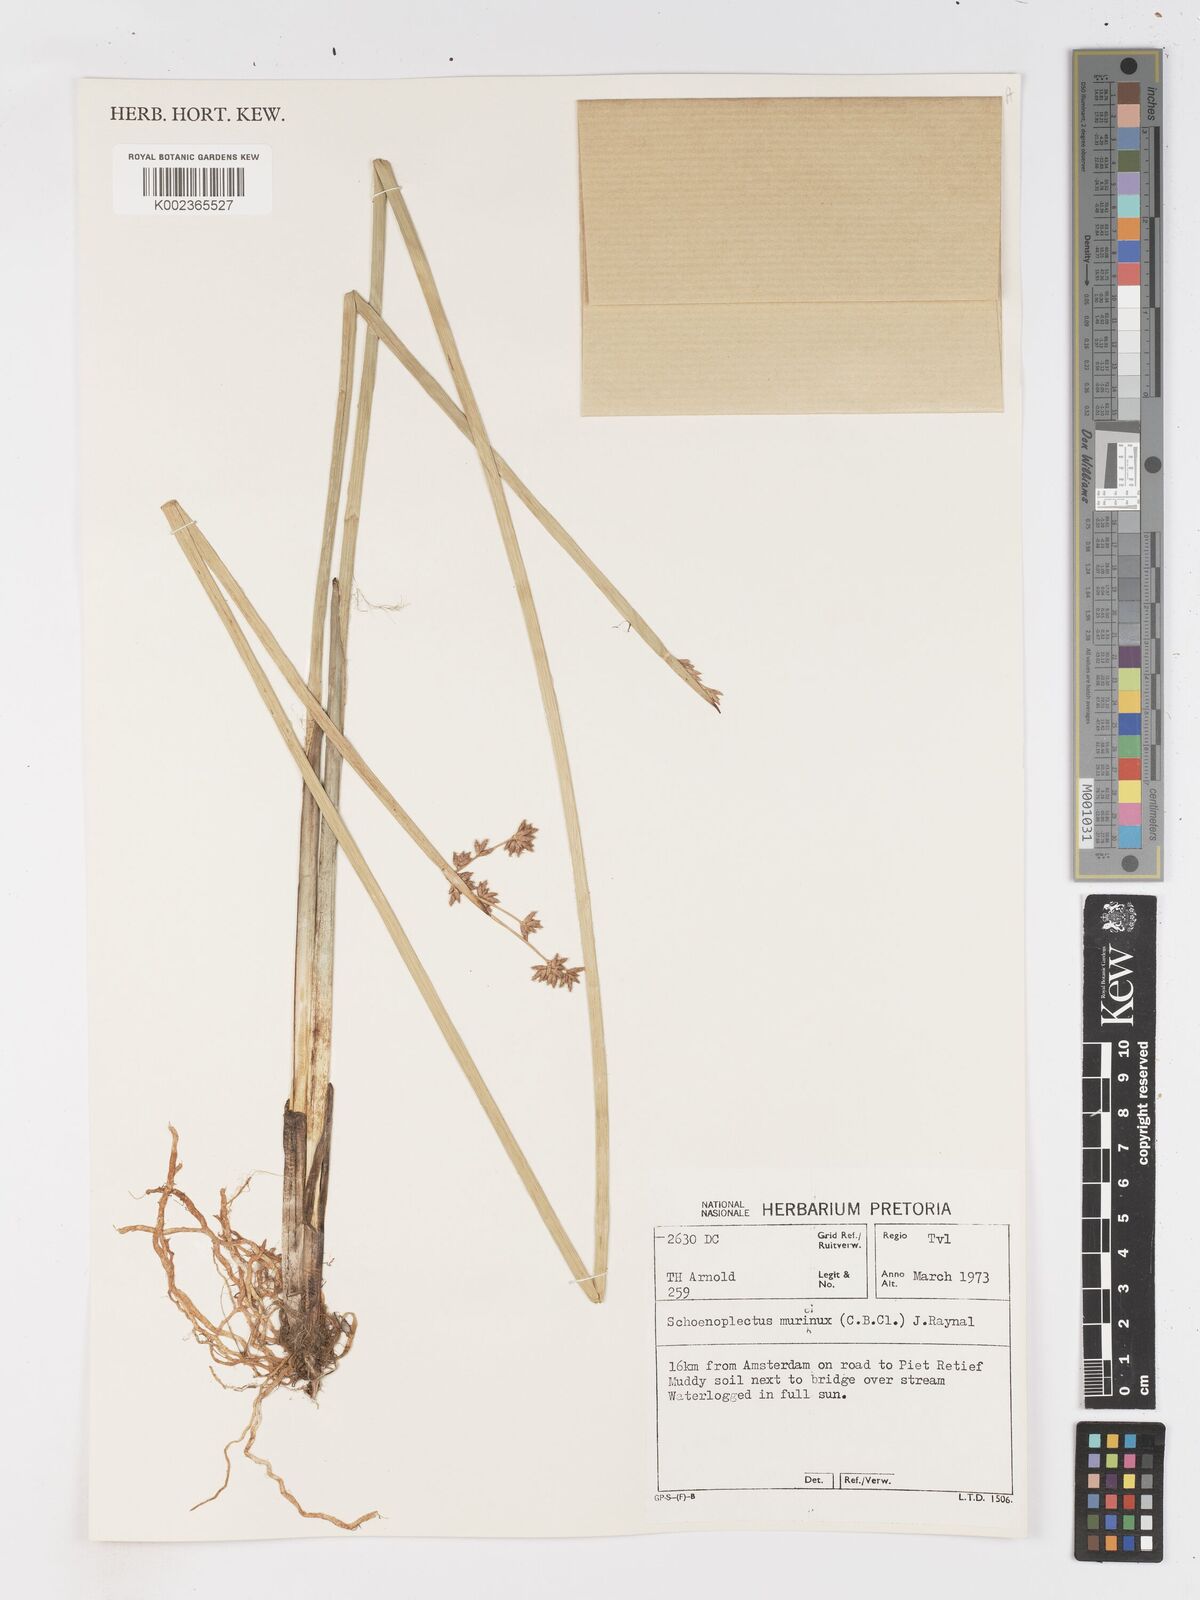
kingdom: Plantae
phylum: Tracheophyta
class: Liliopsida
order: Poales
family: Cyperaceae
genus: Schoenoplectiella
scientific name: Schoenoplectiella muricinux
